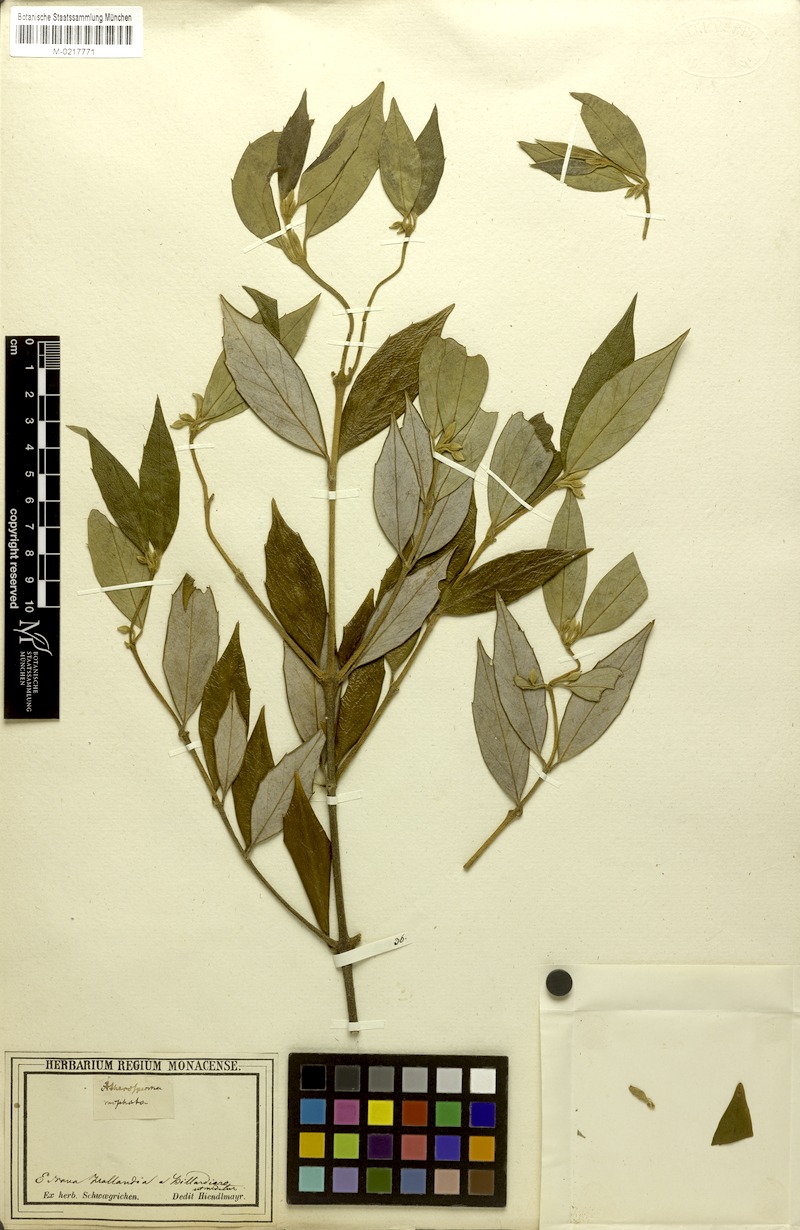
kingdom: Plantae
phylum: Tracheophyta
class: Magnoliopsida
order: Laurales
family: Atherospermataceae
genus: Atherosperma
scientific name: Atherosperma moschatum
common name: Tasmanian-sassafras
